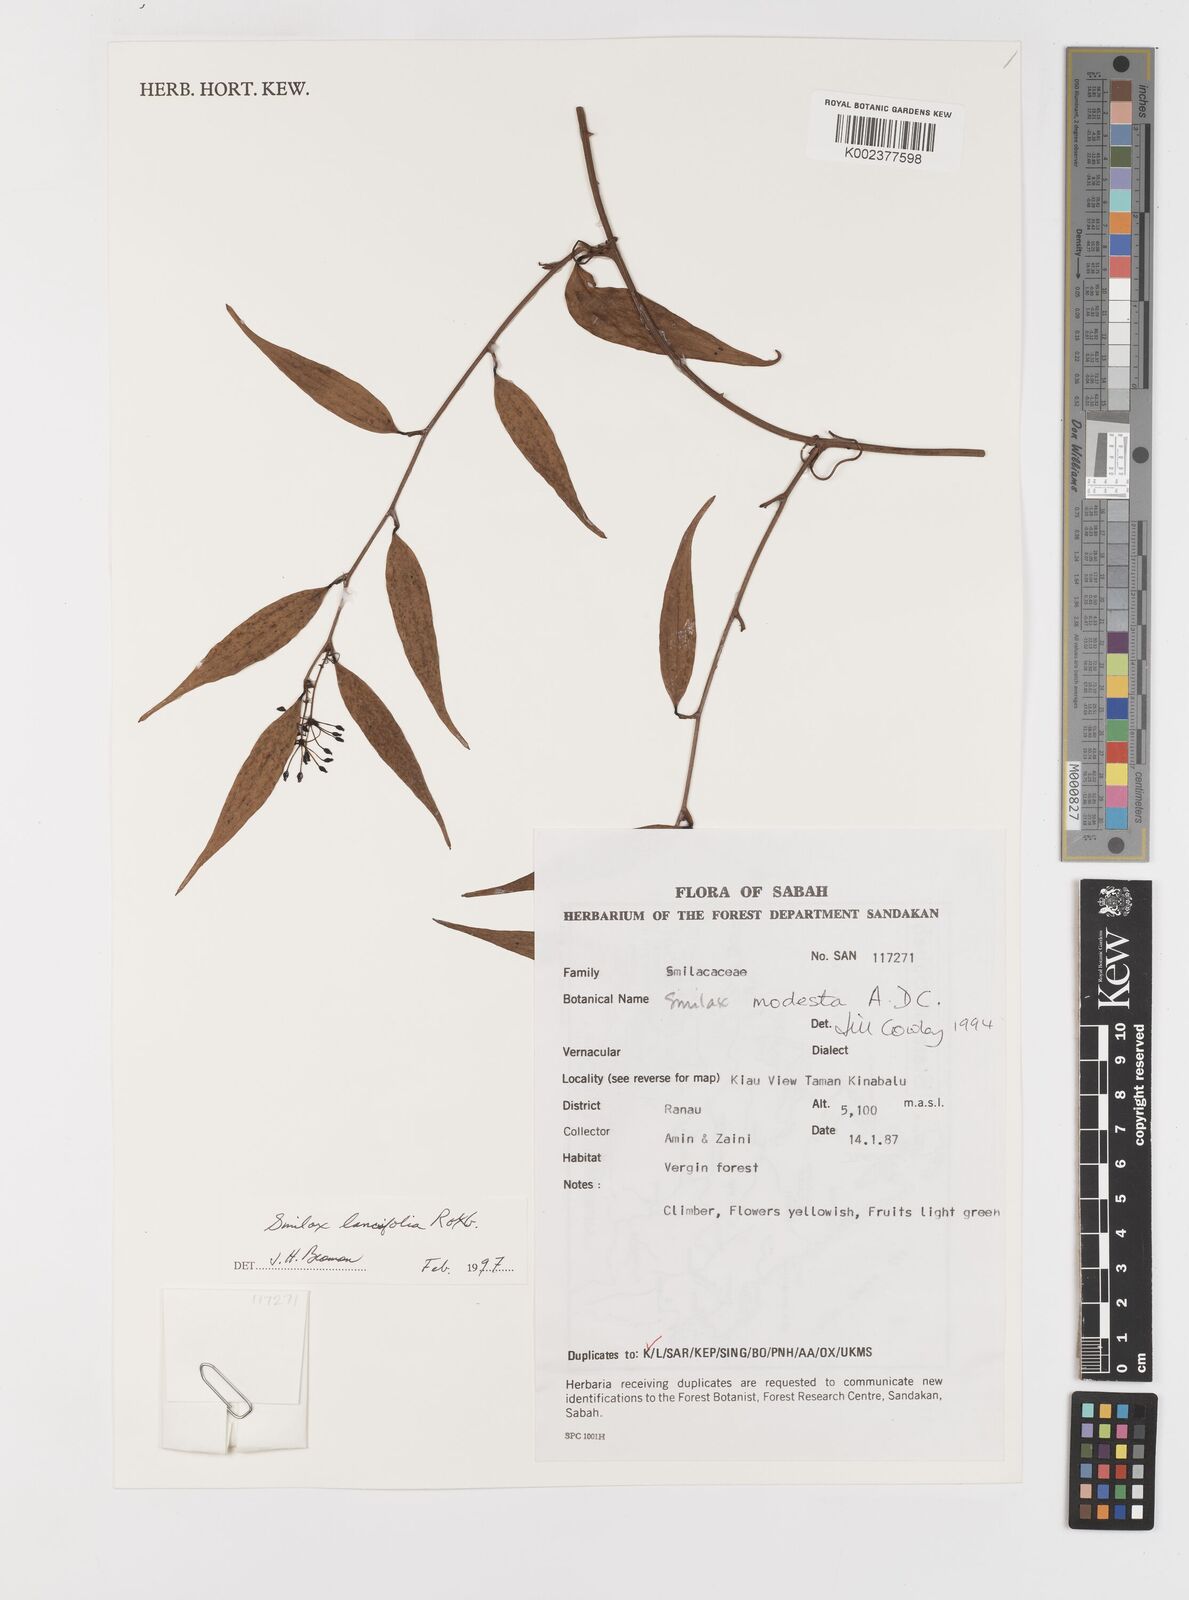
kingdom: Plantae
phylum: Tracheophyta
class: Liliopsida
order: Liliales
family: Smilacaceae
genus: Smilax
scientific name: Smilax lanceifolia
